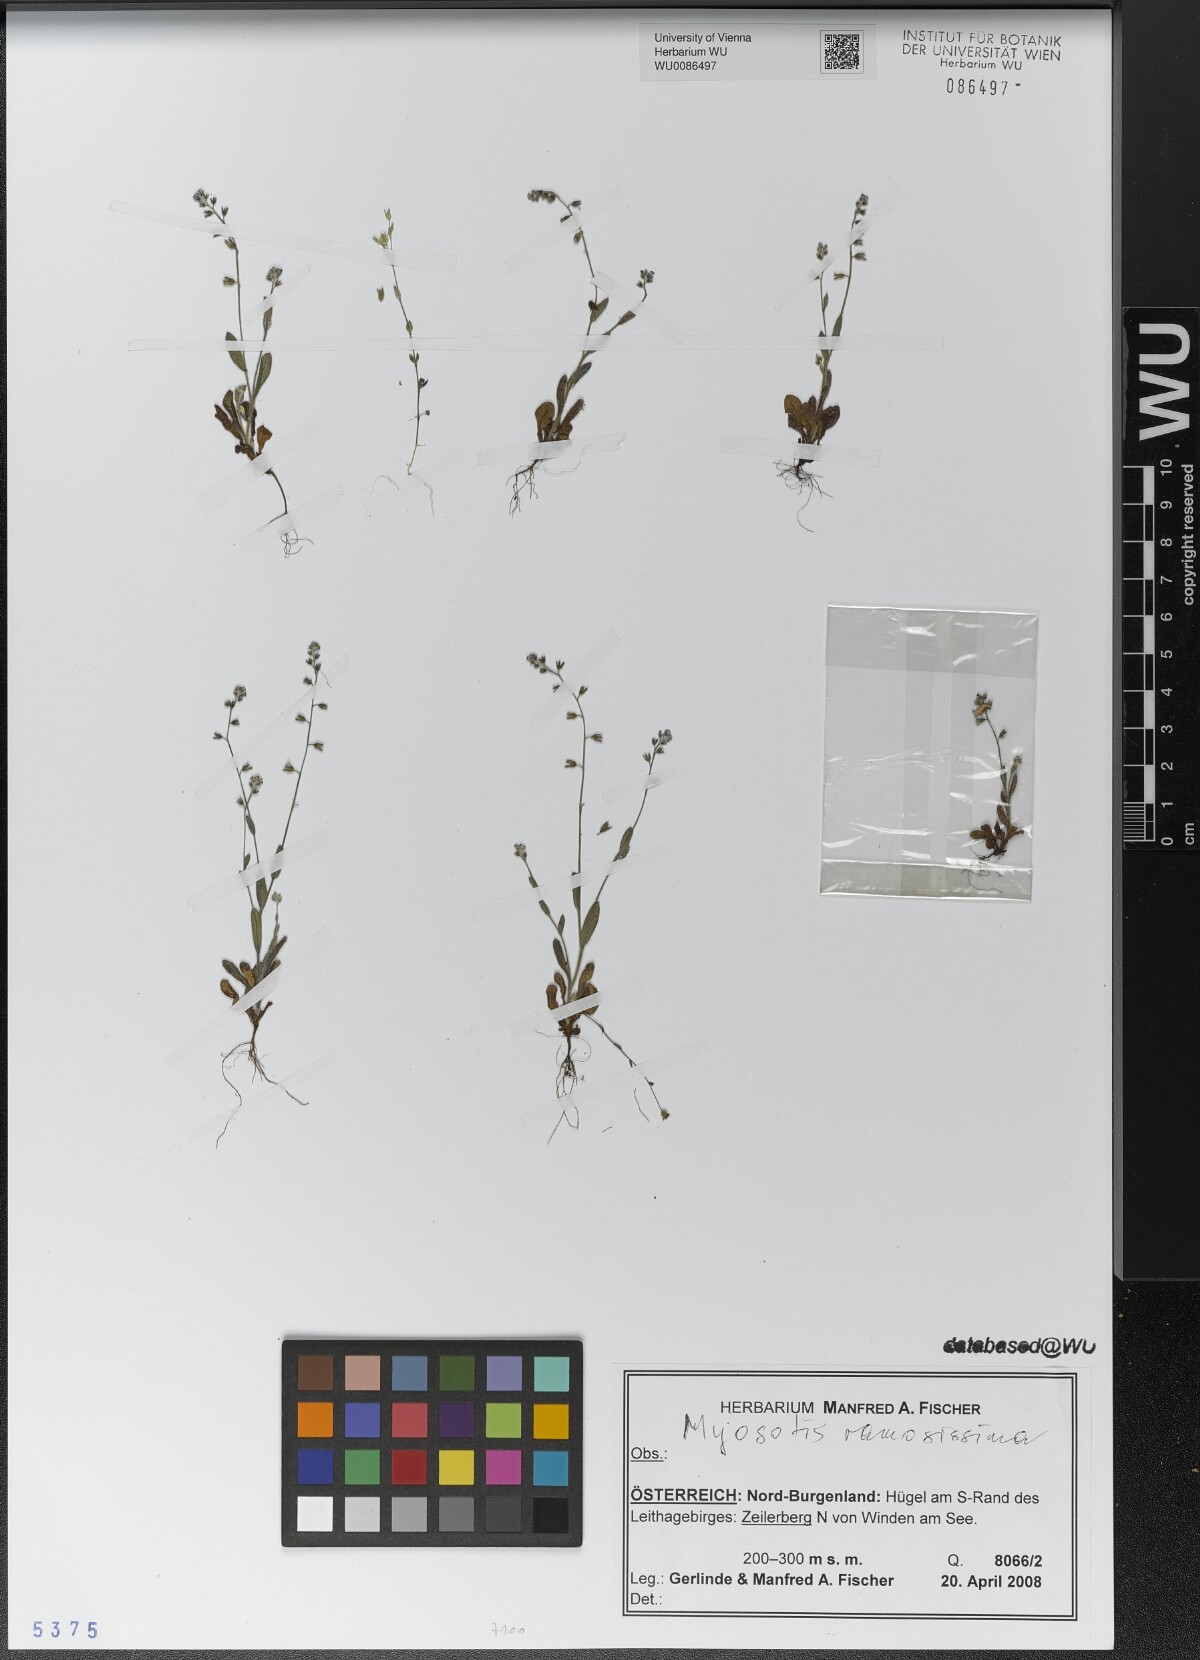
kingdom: Plantae
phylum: Tracheophyta
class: Magnoliopsida
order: Boraginales
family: Boraginaceae
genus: Myosotis
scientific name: Myosotis ramosissima
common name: Early forget-me-not
